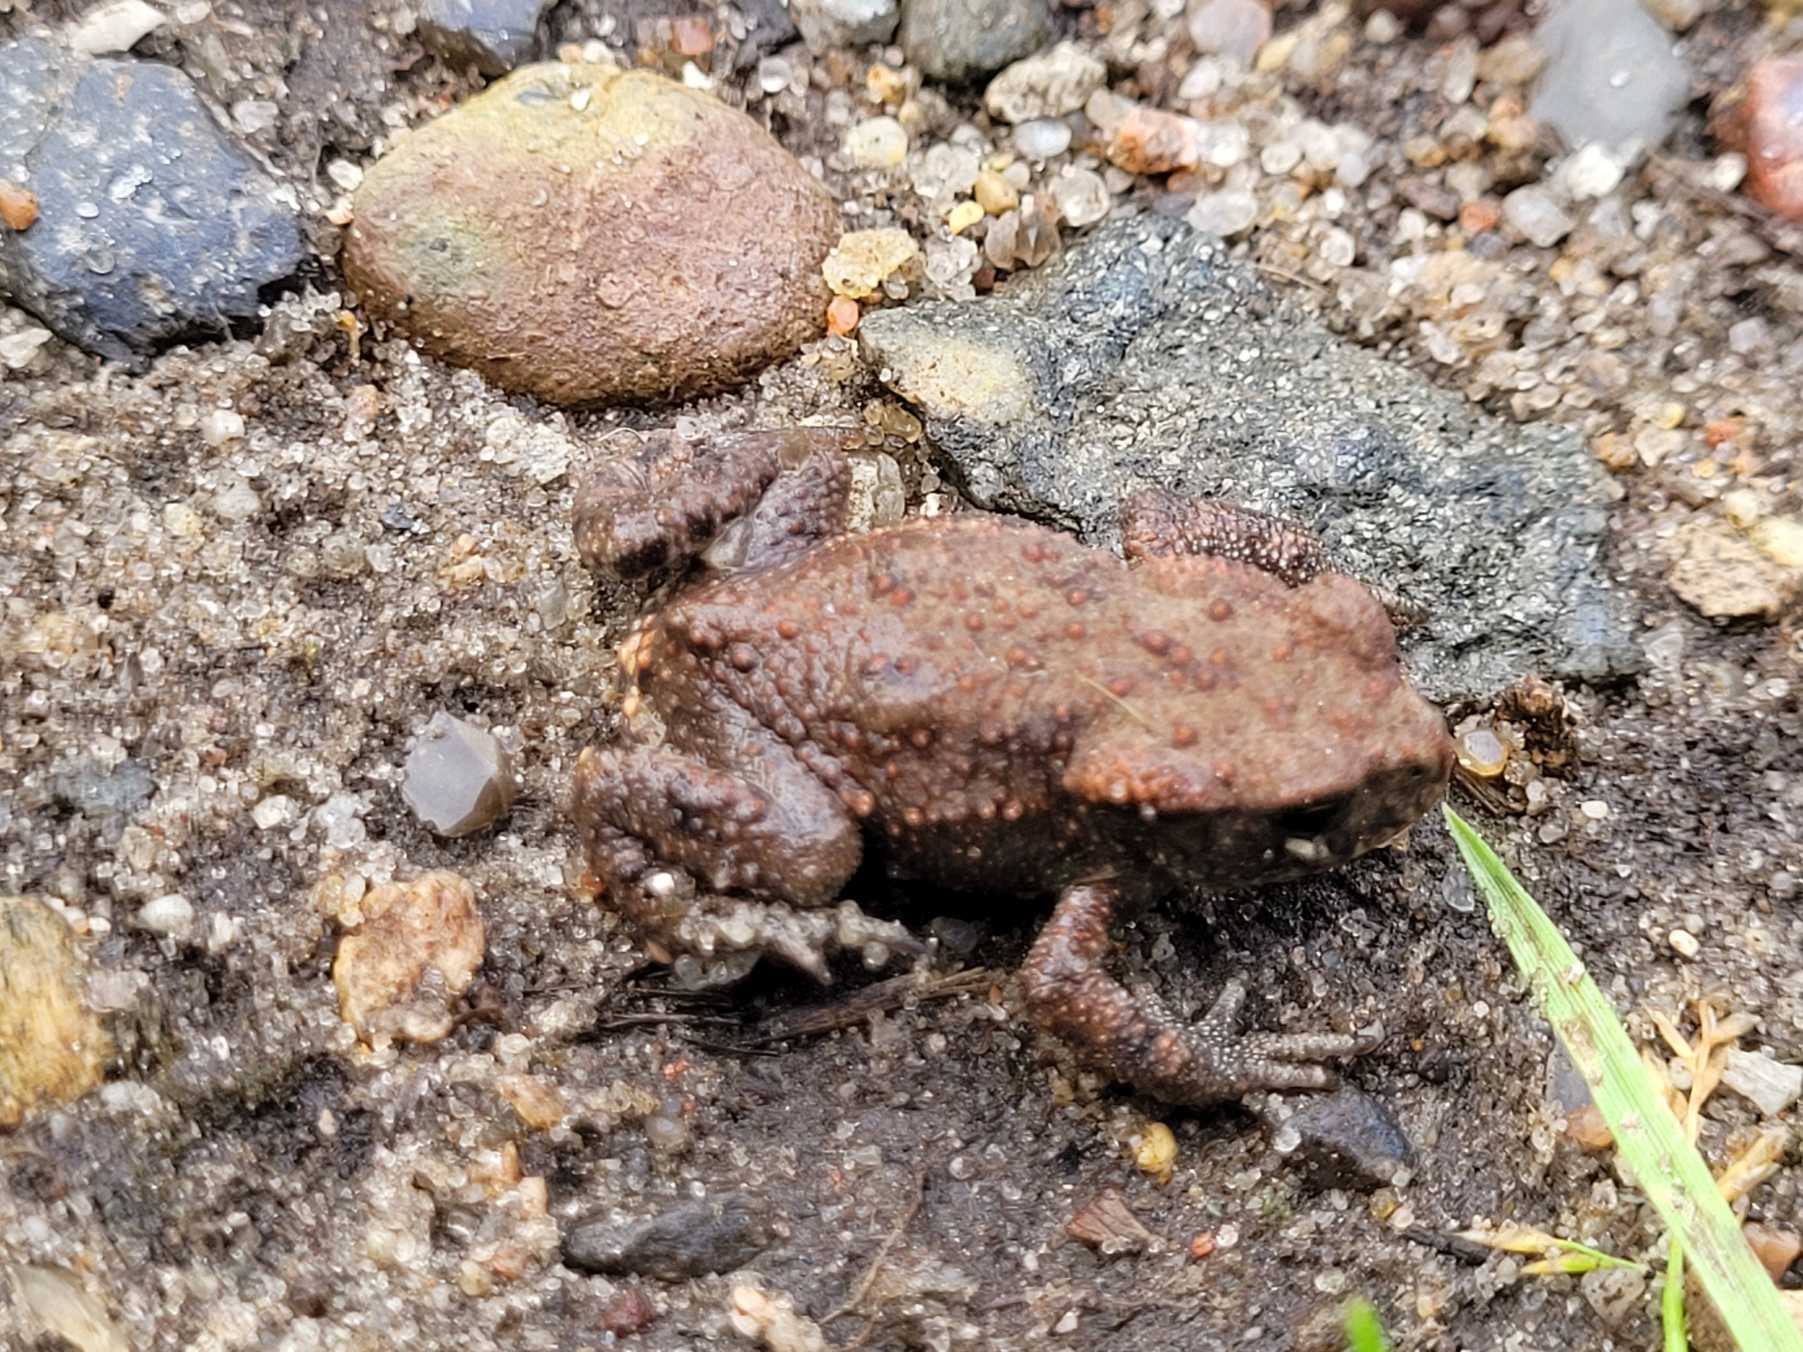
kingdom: Animalia
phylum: Chordata
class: Amphibia
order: Anura
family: Bufonidae
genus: Bufo
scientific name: Bufo bufo
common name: Skrubtudse
